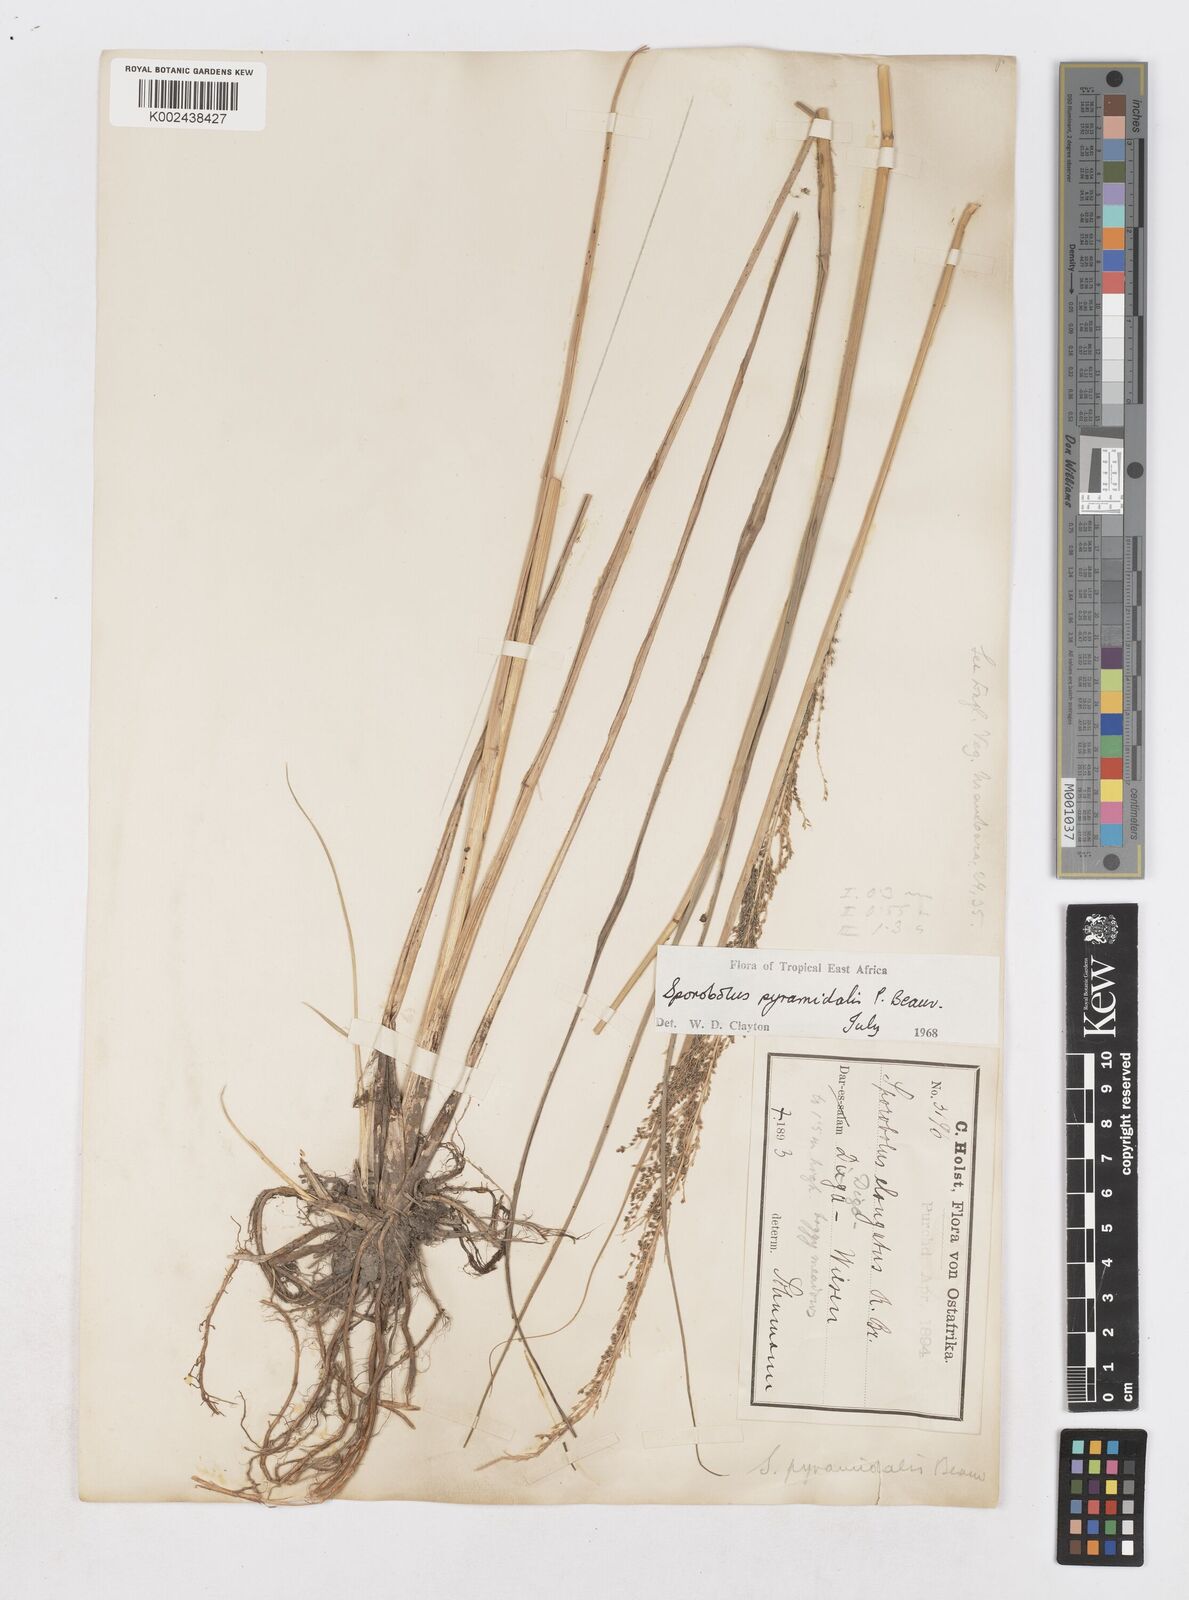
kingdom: Plantae
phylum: Tracheophyta
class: Liliopsida
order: Poales
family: Poaceae
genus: Sporobolus
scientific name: Sporobolus pyramidalis
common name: West indian dropseed
